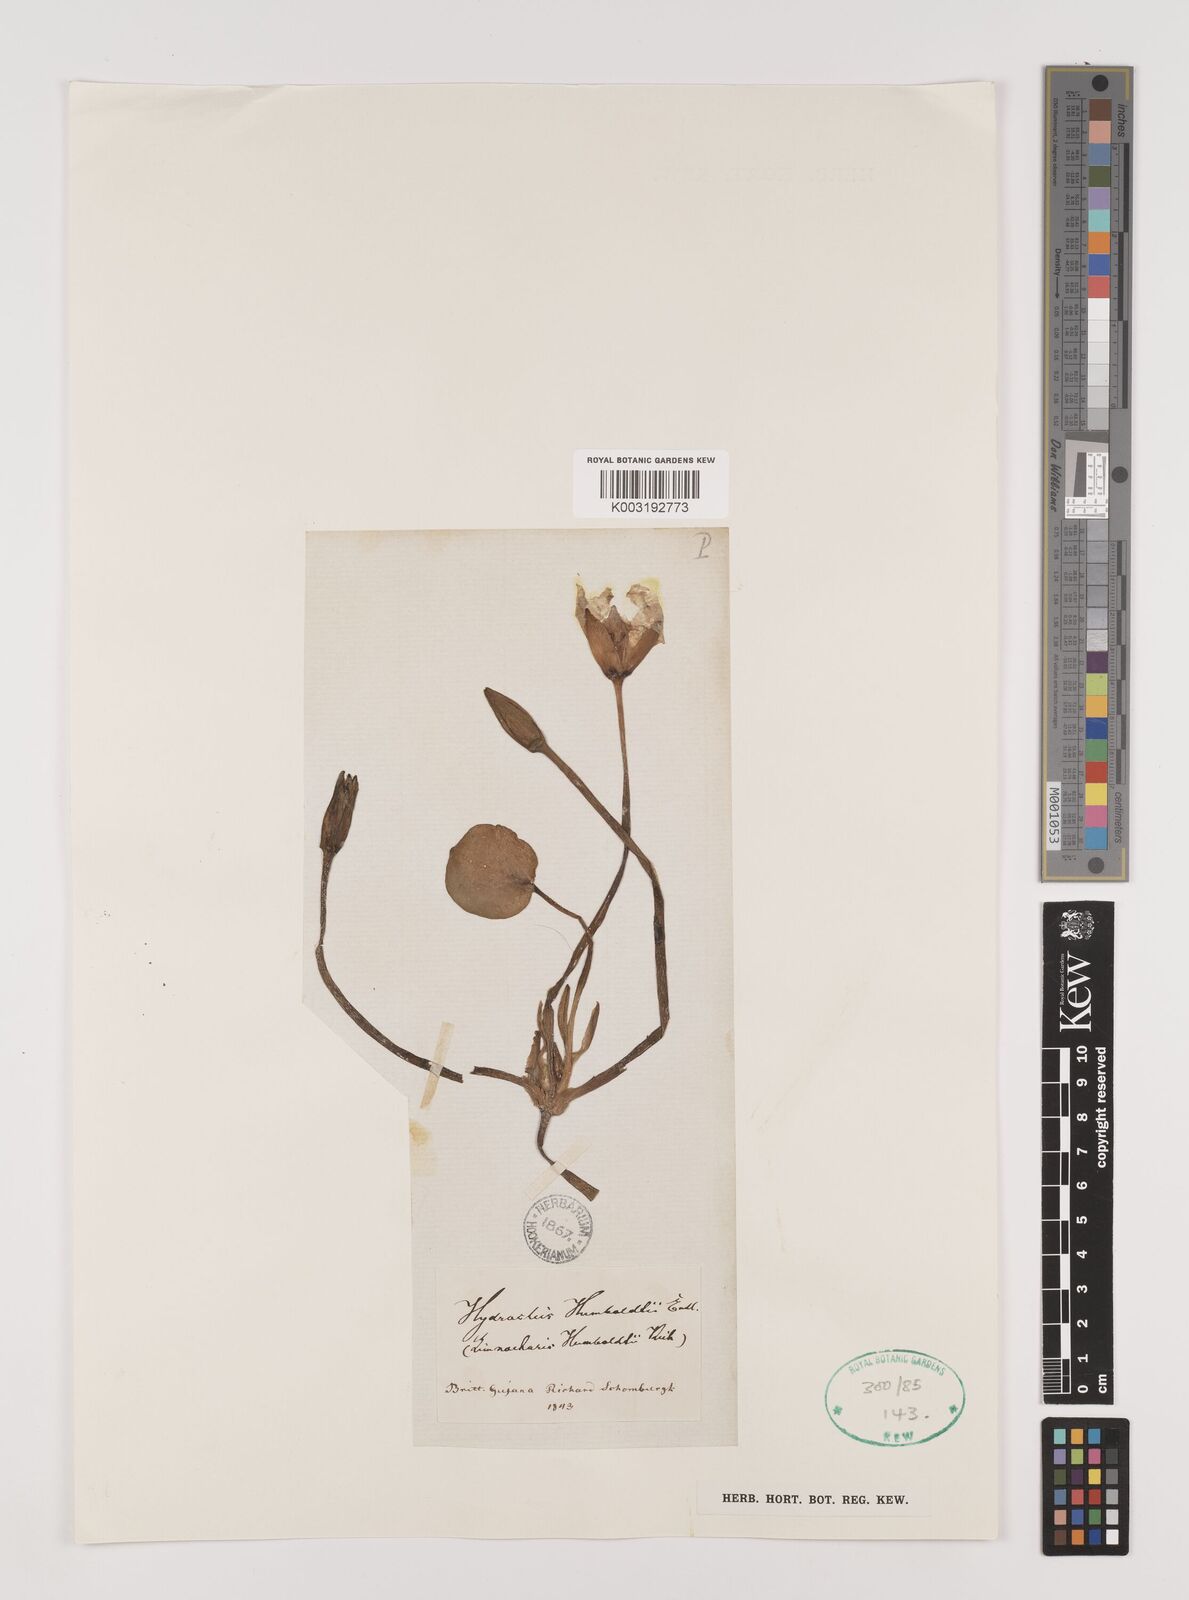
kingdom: Plantae
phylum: Tracheophyta
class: Liliopsida
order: Alismatales
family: Alismataceae
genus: Hydrocleys
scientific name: Hydrocleys nymphoides
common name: Water-poppy
